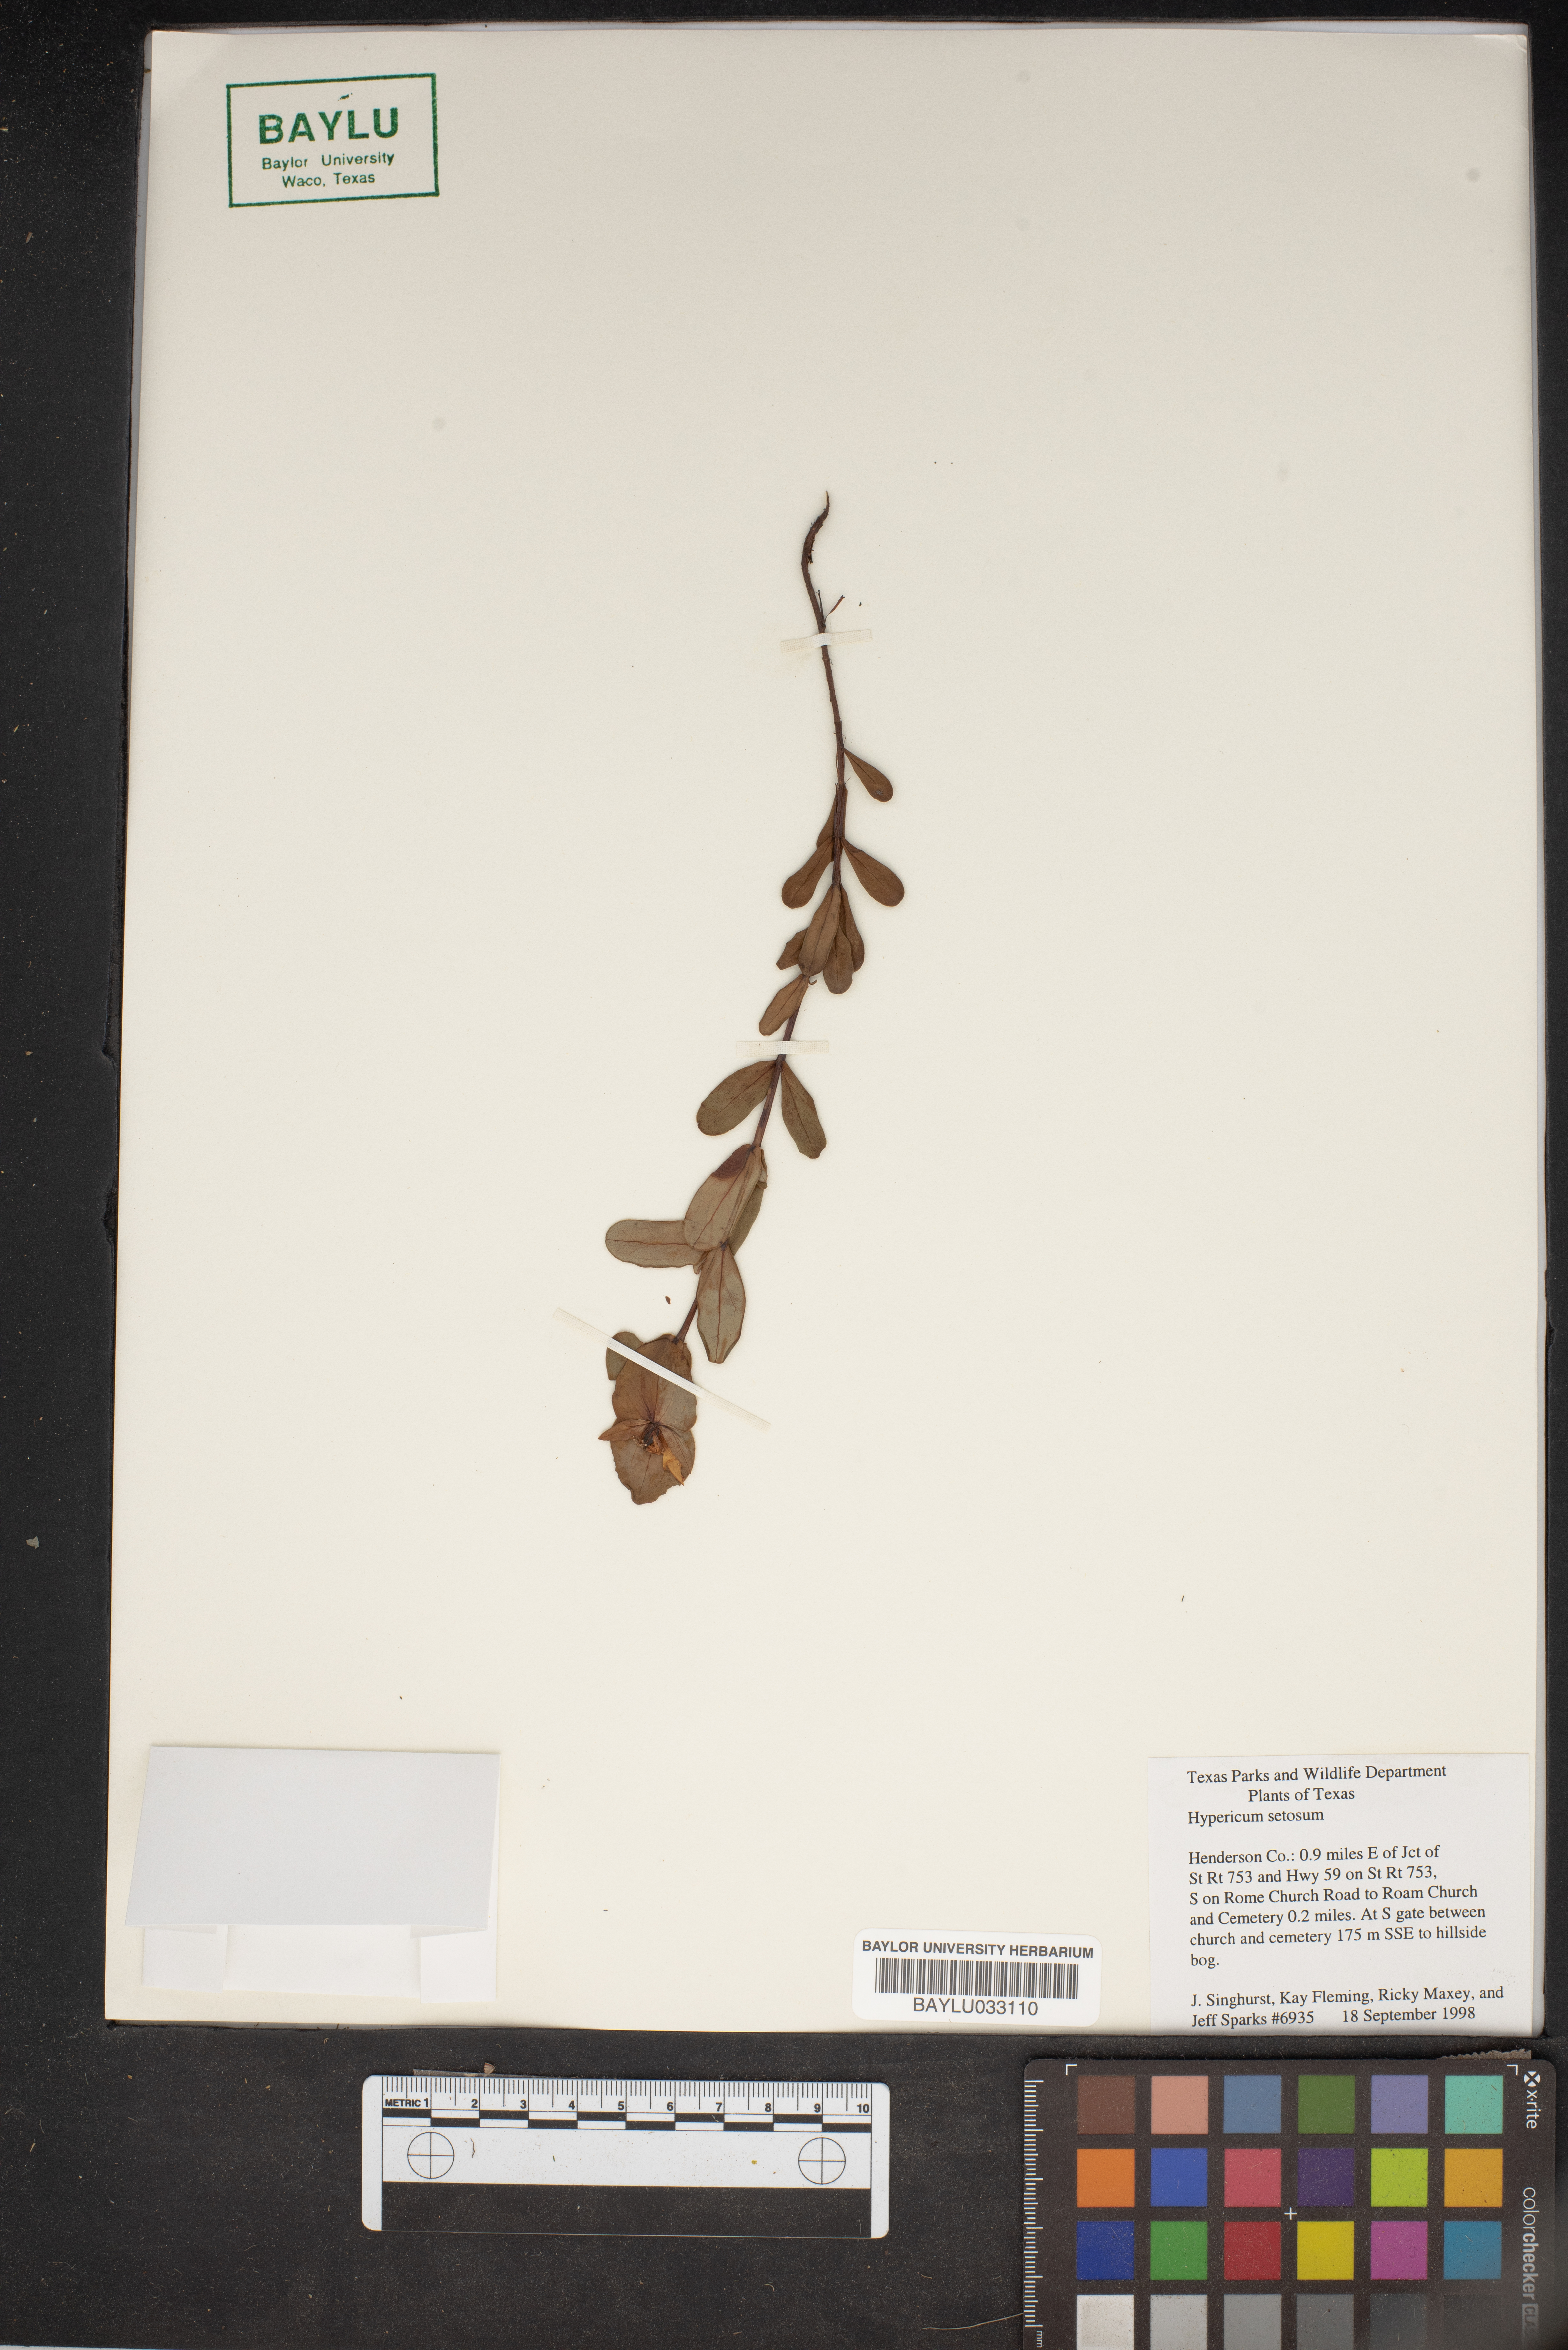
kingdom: Plantae
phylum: Tracheophyta
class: Magnoliopsida
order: Malpighiales
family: Hypericaceae
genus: Hypericum
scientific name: Hypericum setosum
